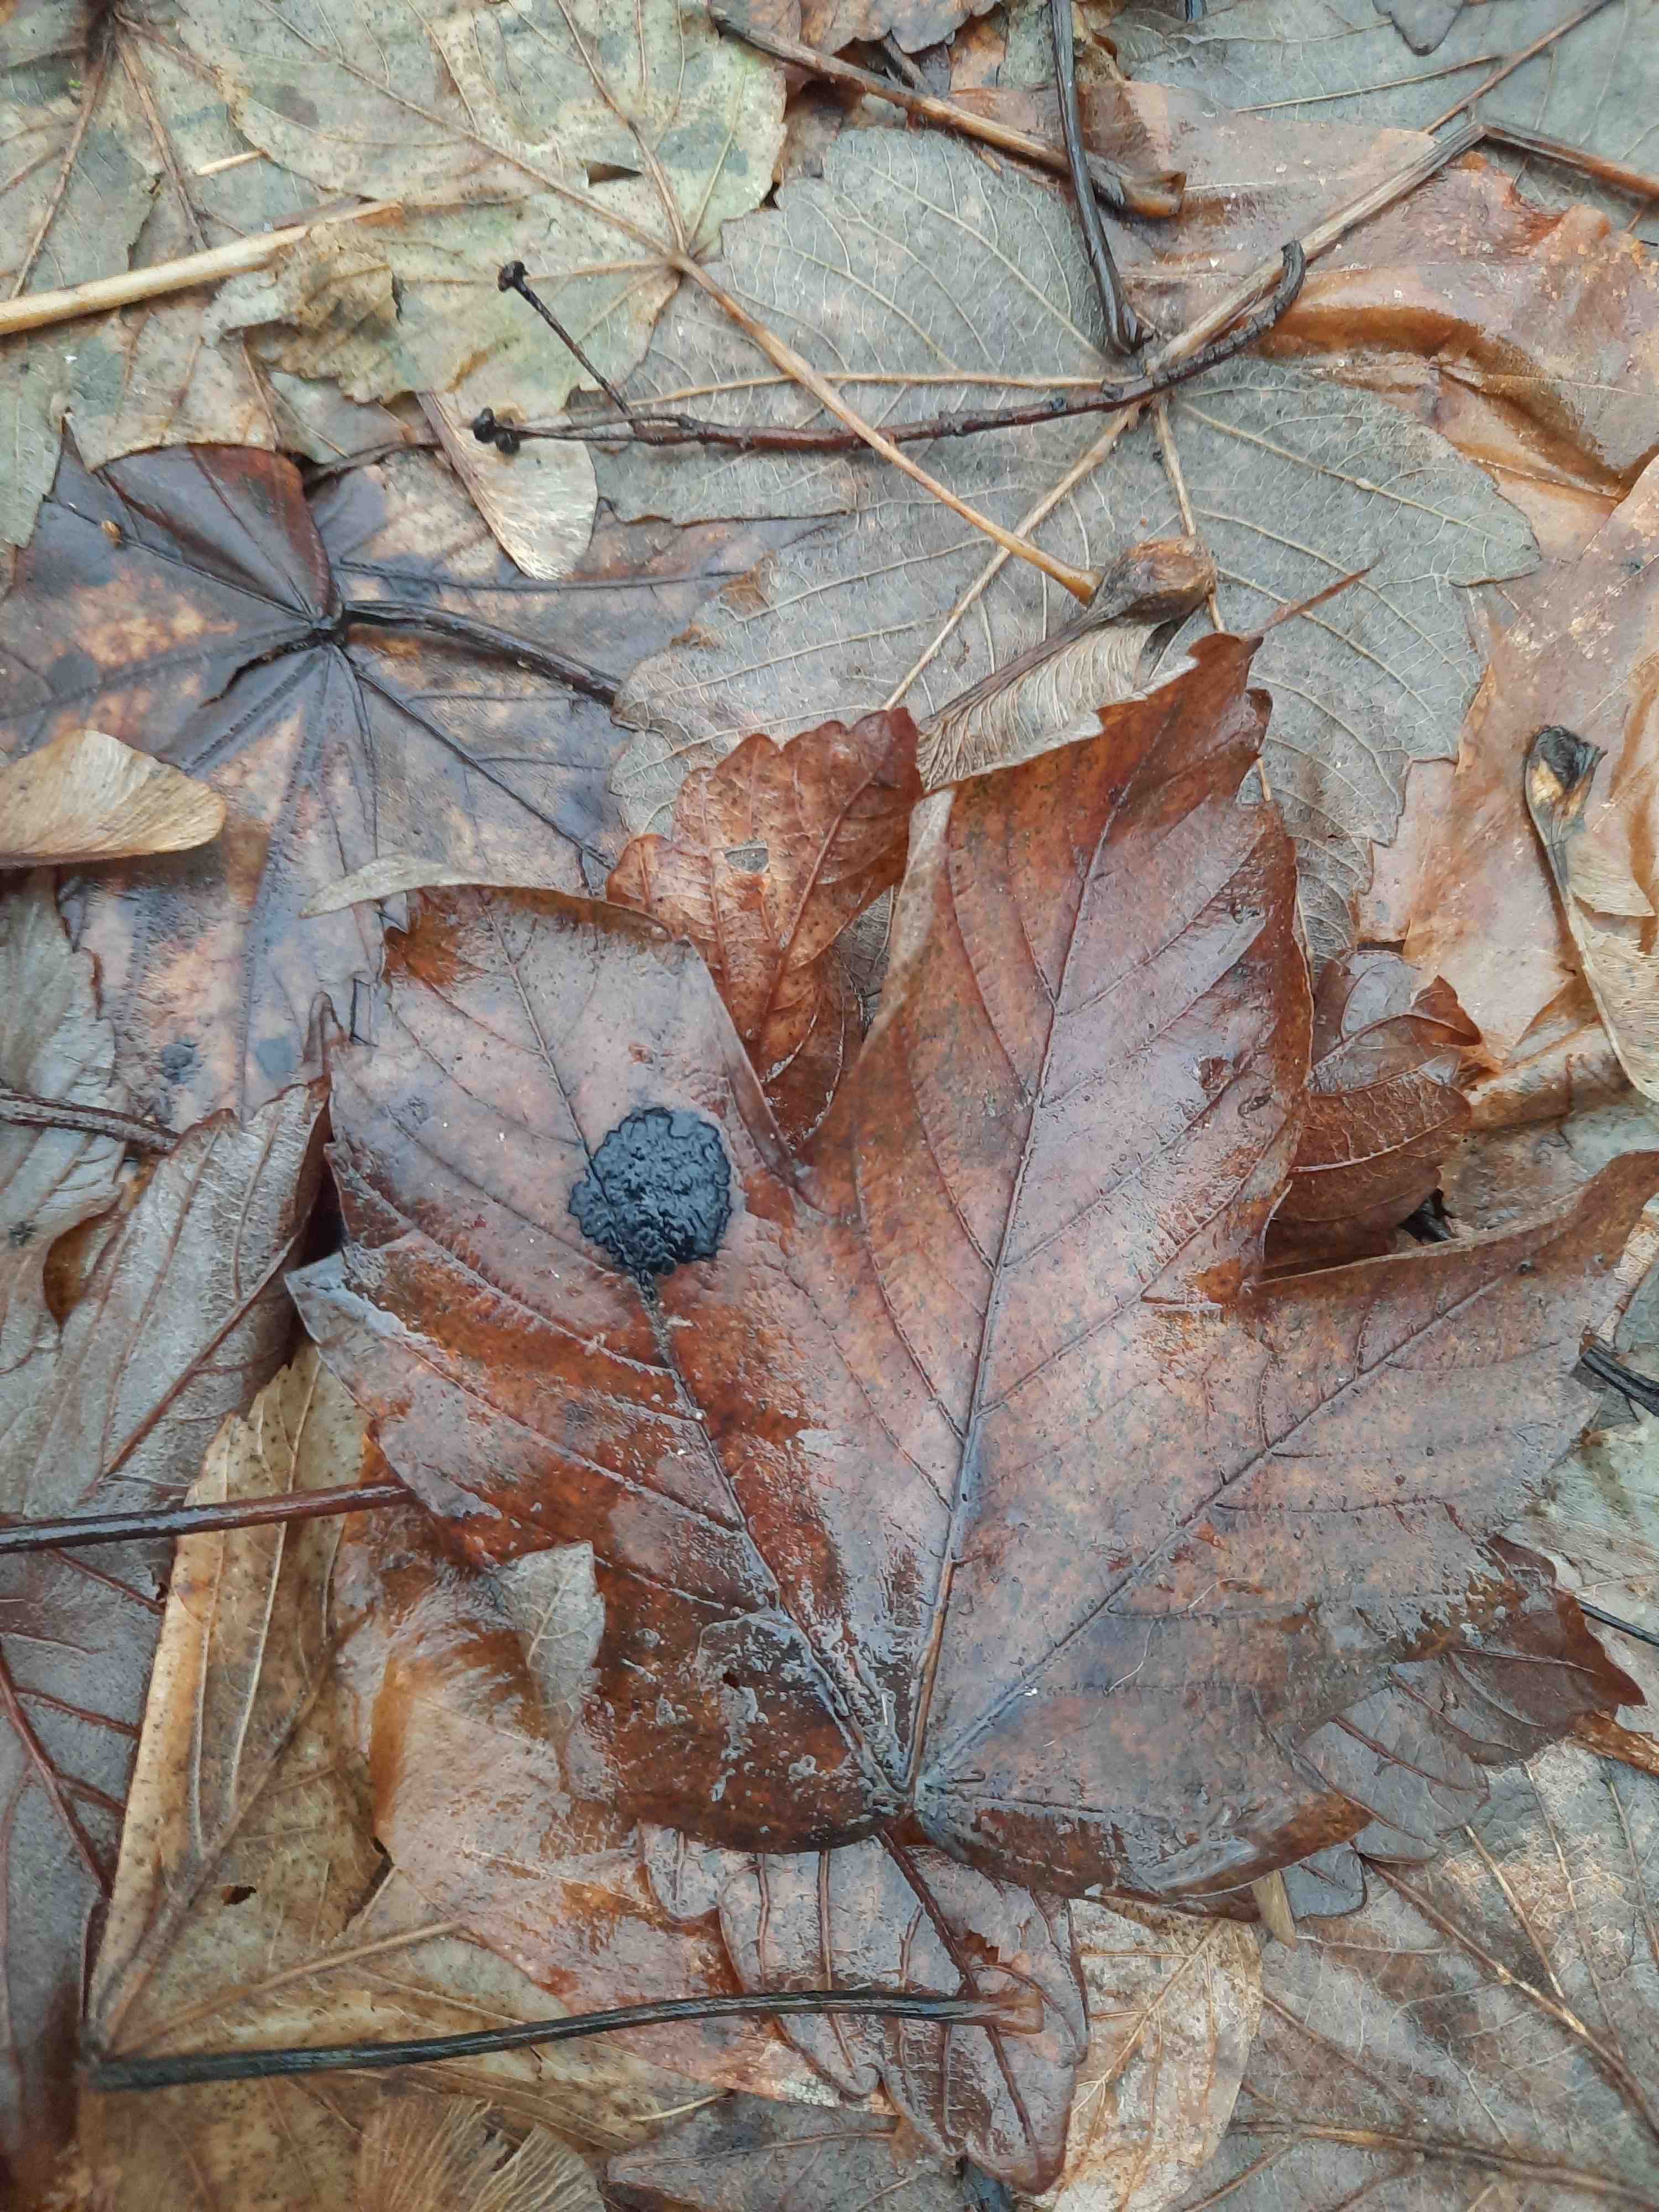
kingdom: Fungi
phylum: Ascomycota
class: Leotiomycetes
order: Rhytismatales
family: Rhytismataceae
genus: Rhytisma
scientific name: Rhytisma acerinum
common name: ahorn-rynkeplet
